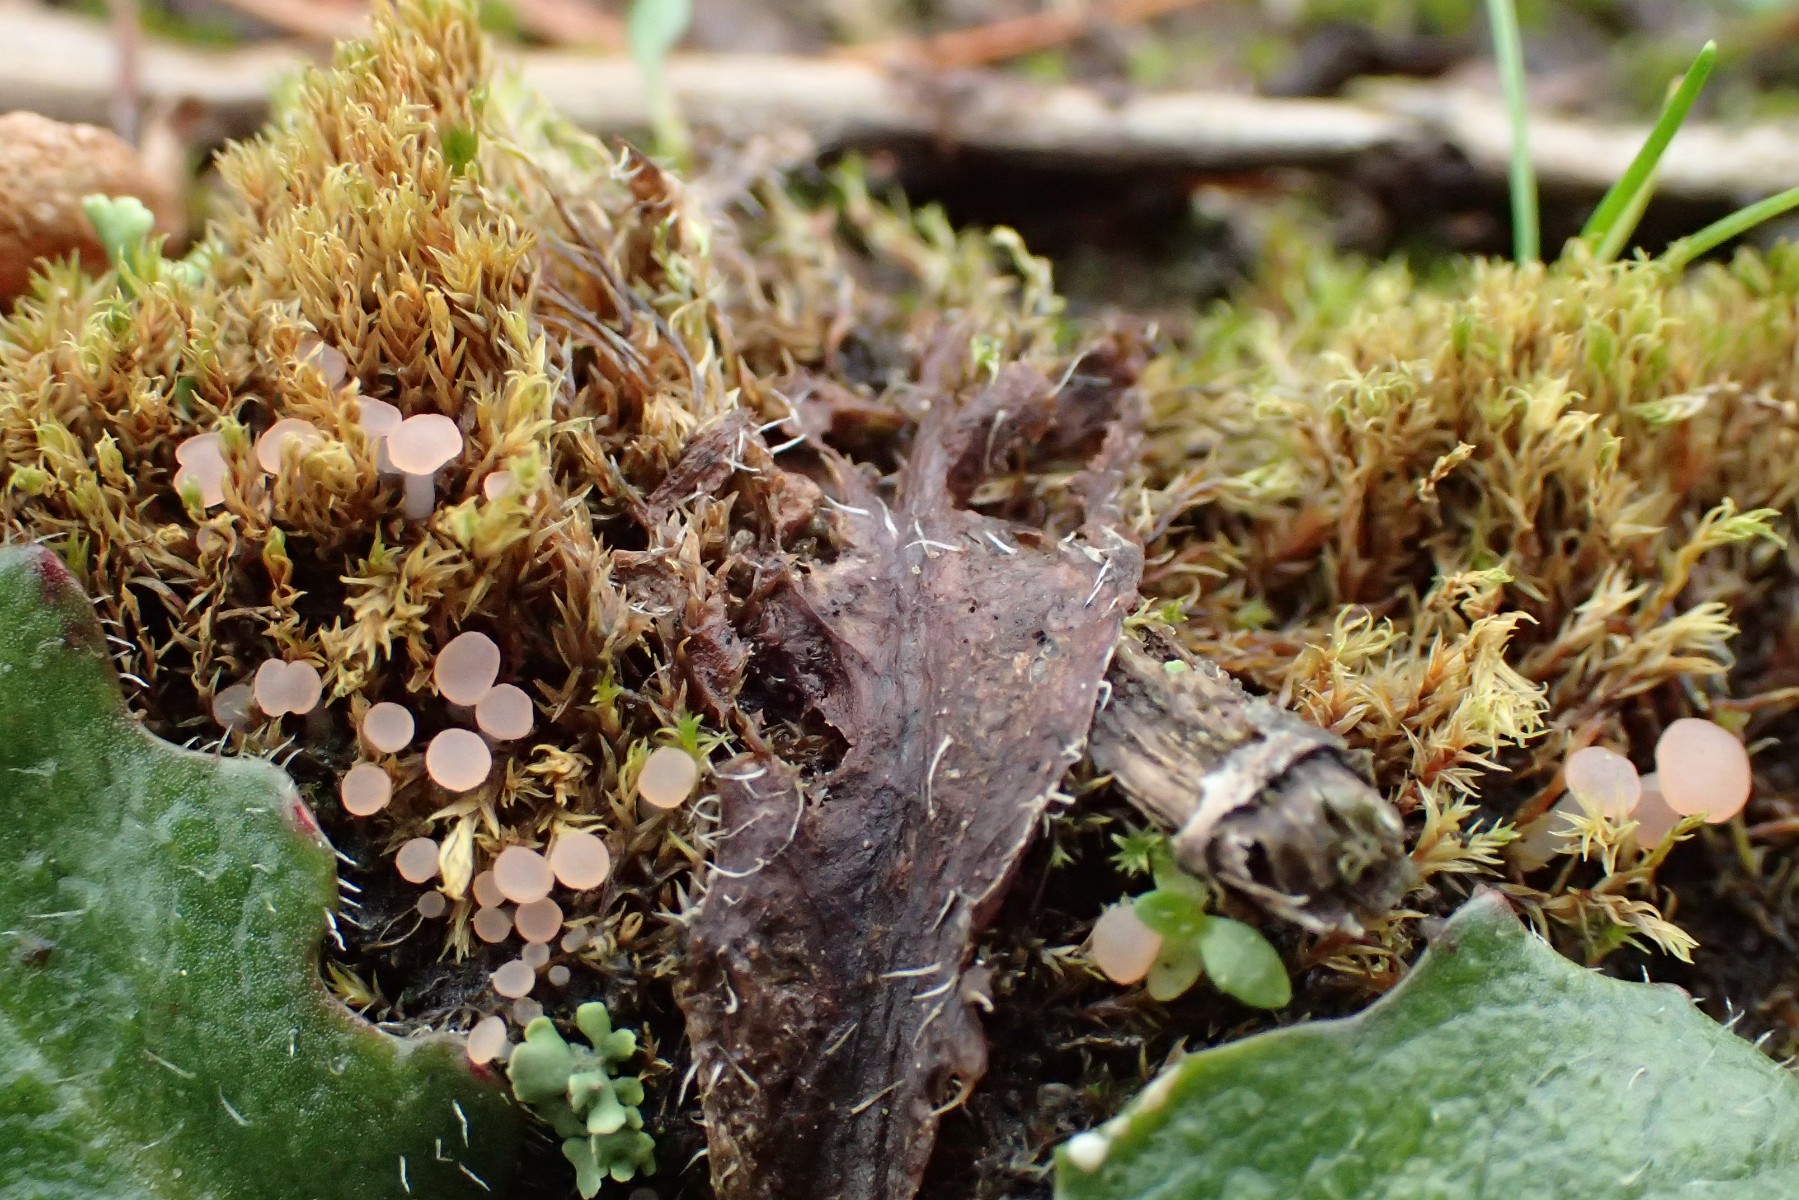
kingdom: Fungi
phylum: Ascomycota
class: Leotiomycetes
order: Helotiales
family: Hyaloscyphaceae
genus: Roseodiscus
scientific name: Roseodiscus formosus
